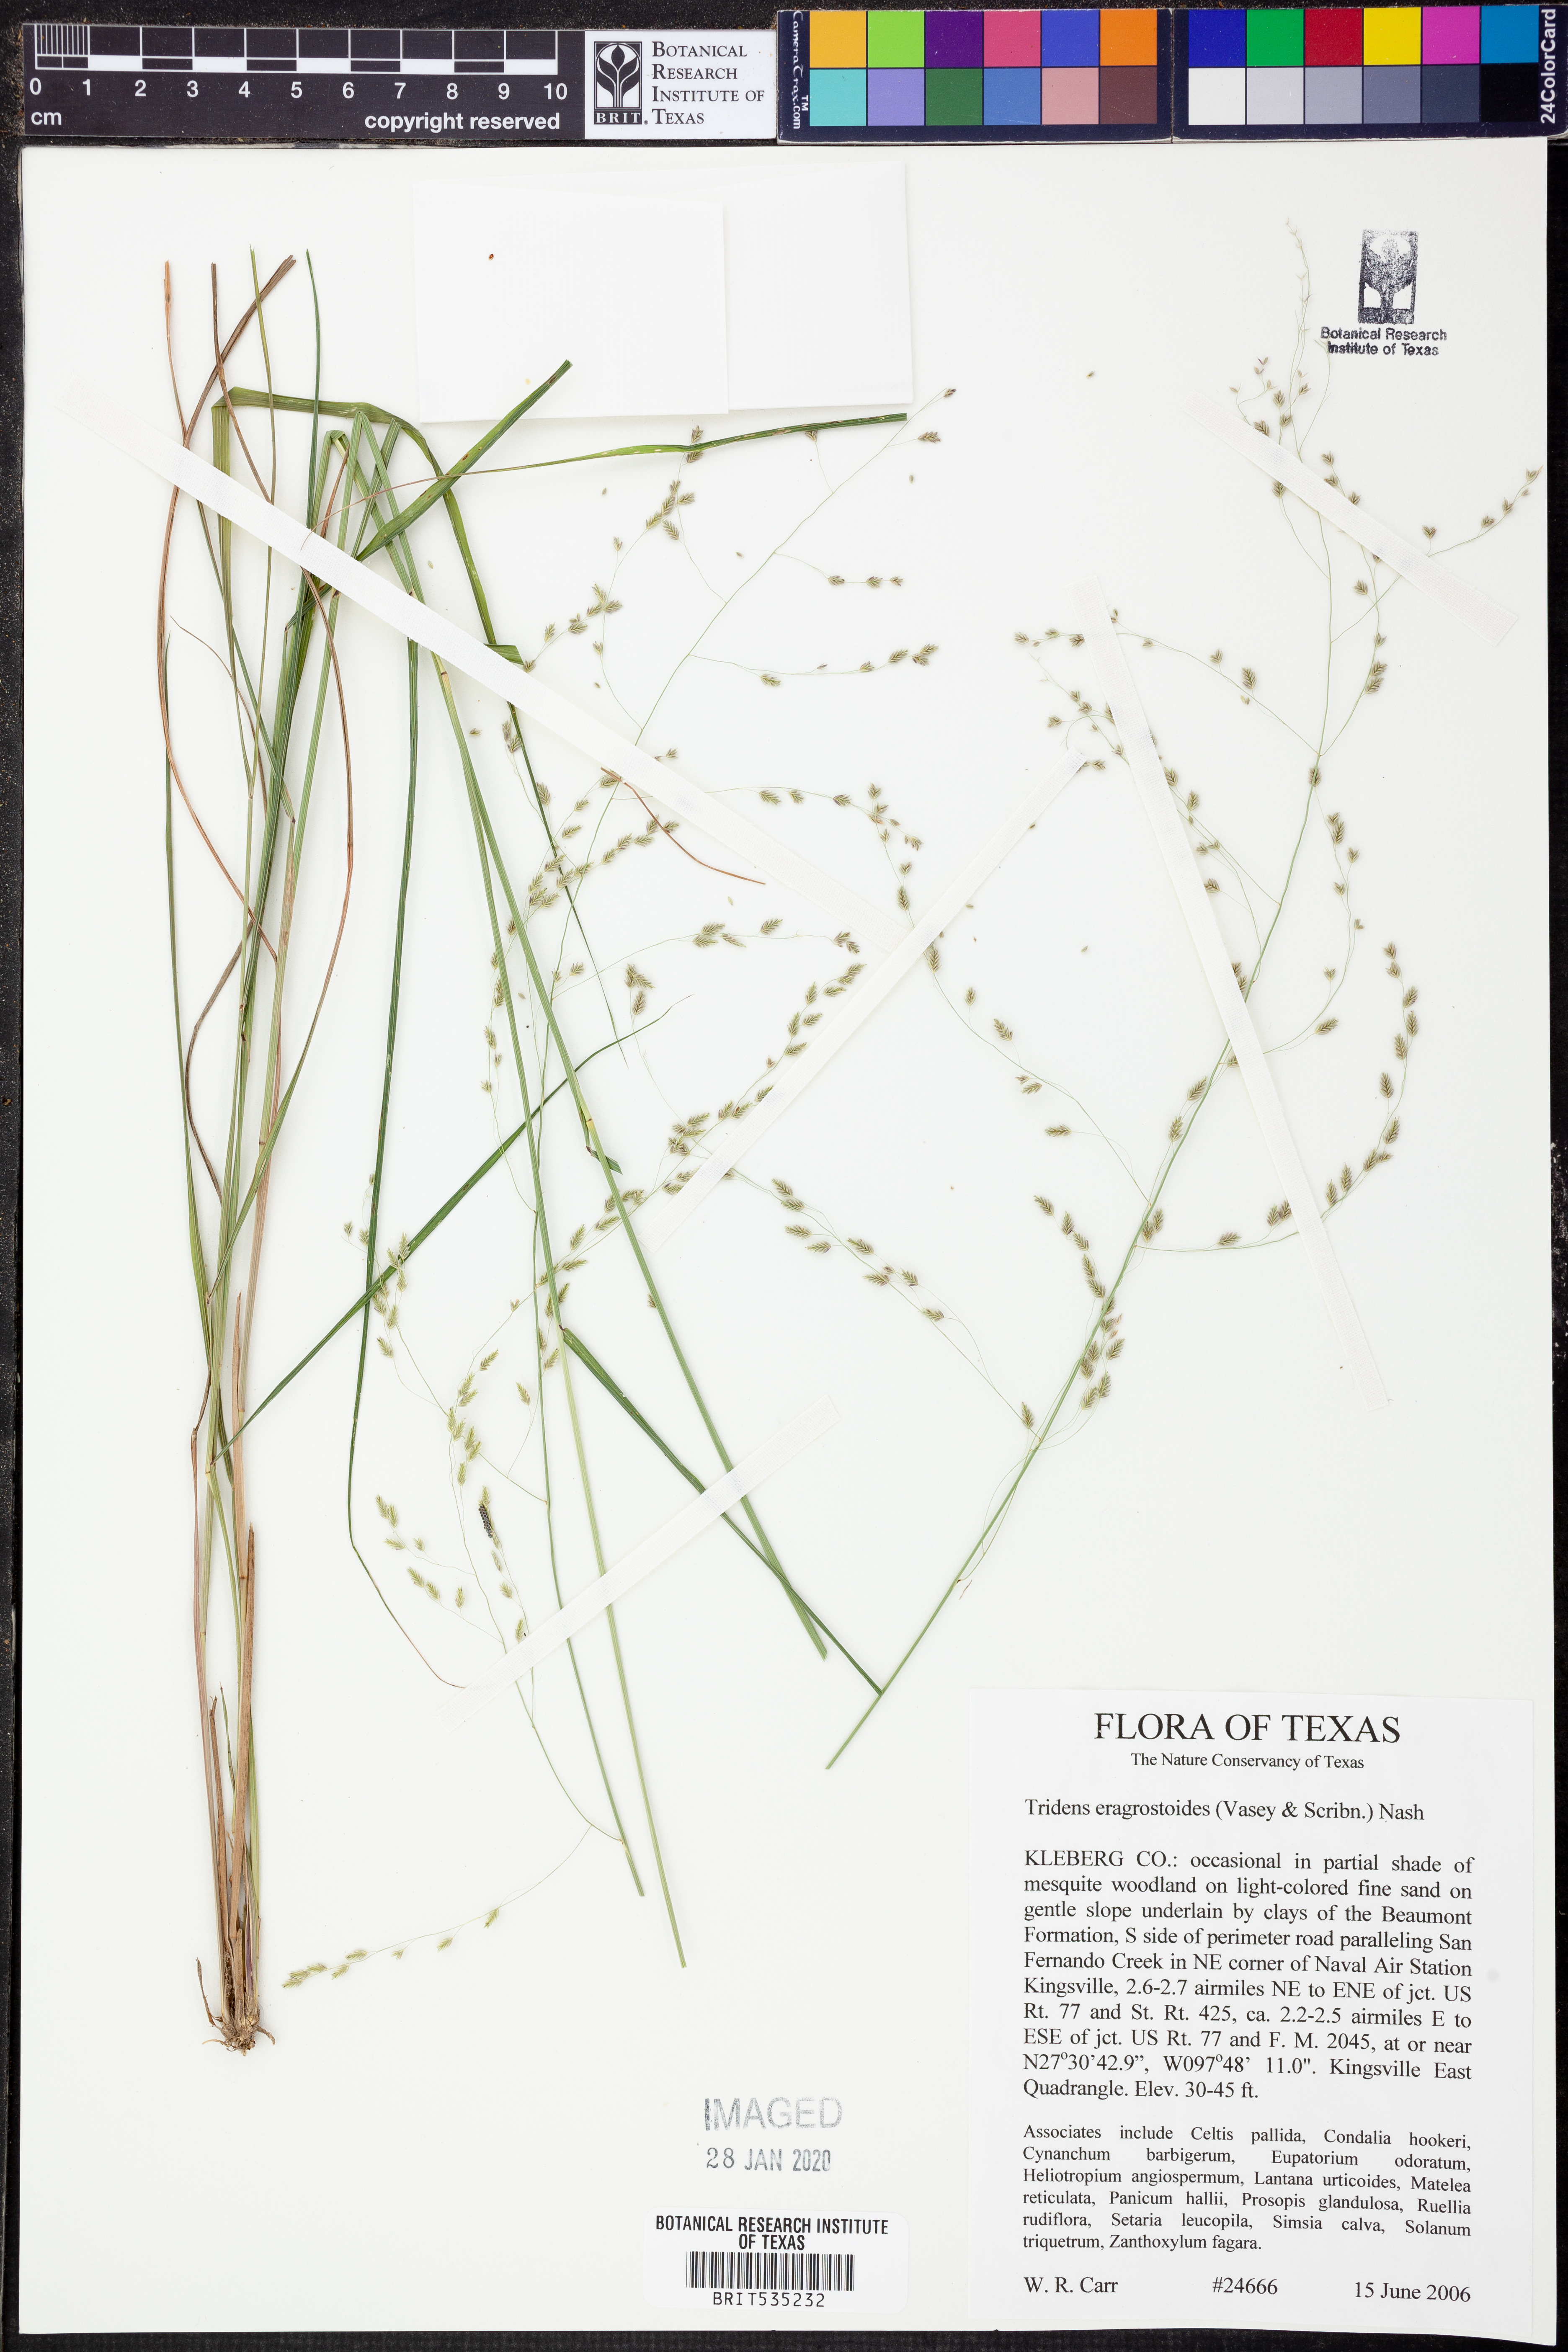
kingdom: Plantae
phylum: Tracheophyta
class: Liliopsida
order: Poales
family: Poaceae
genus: Triplasiella
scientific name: Triplasiella eragrostoides
